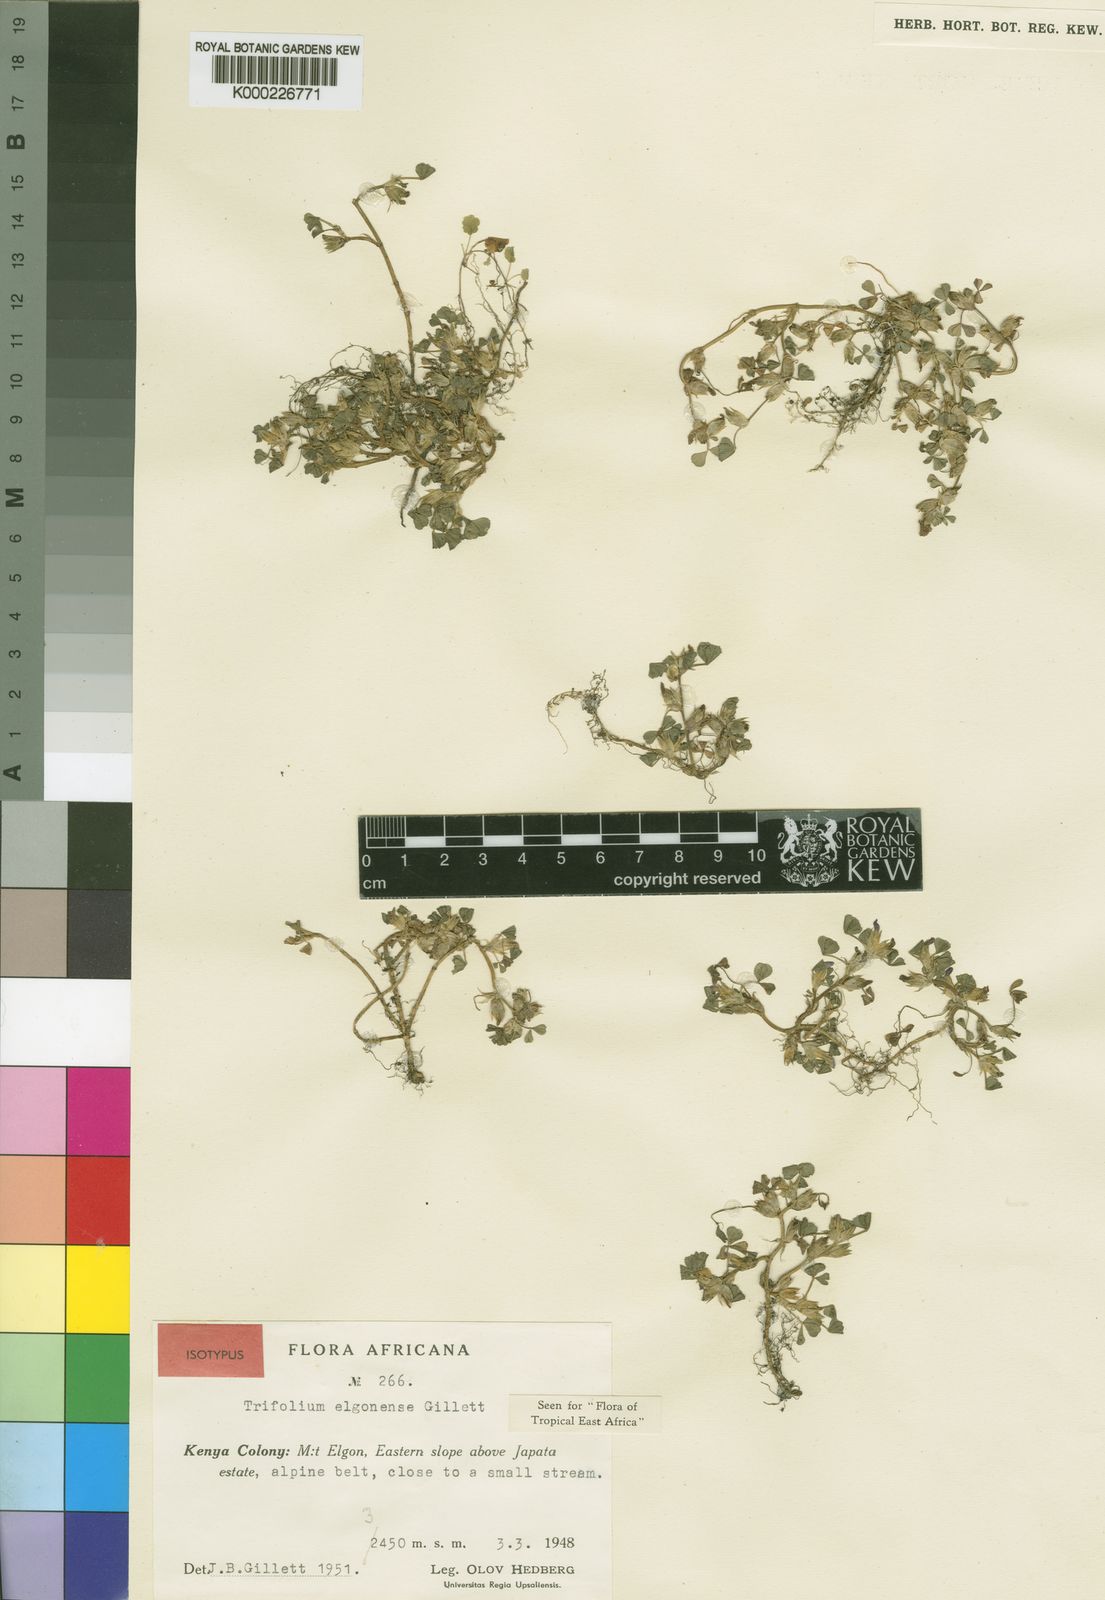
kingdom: Plantae
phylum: Tracheophyta
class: Magnoliopsida
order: Fabales
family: Fabaceae
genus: Trifolium
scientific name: Trifolium elgonense
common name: Elgon clover
